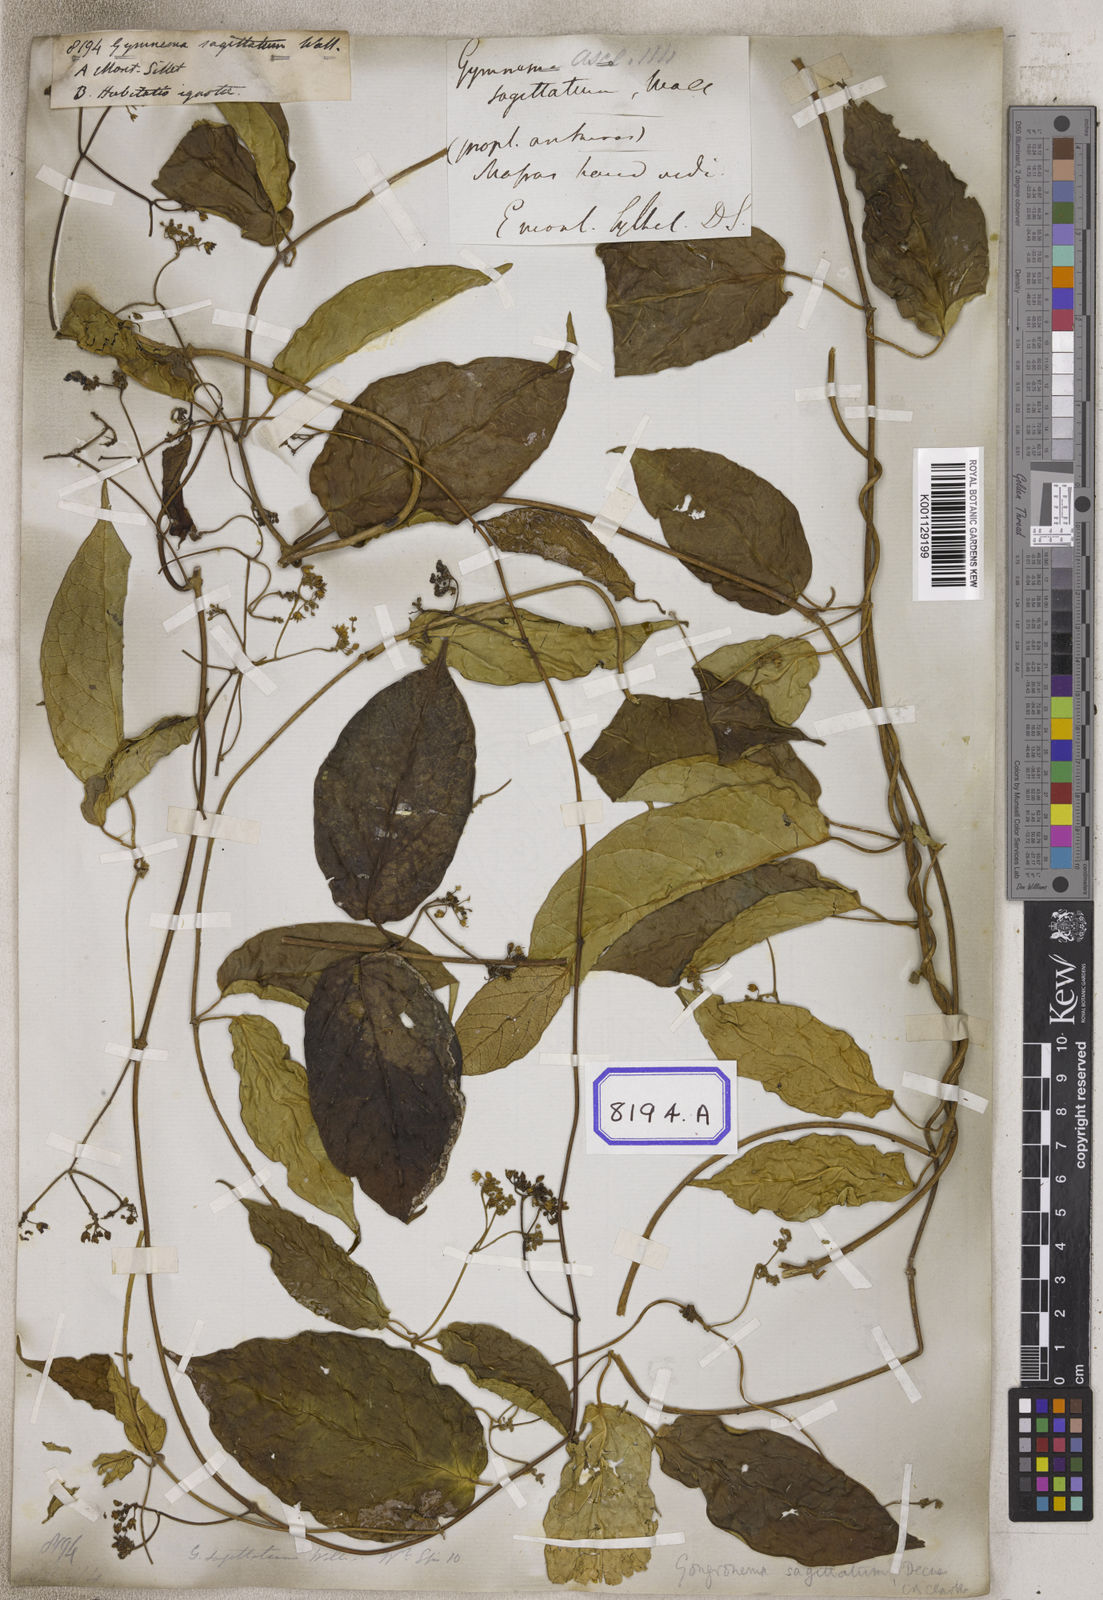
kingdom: Plantae
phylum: Tracheophyta
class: Magnoliopsida
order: Gentianales
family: Apocynaceae
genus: Gongronema
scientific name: Gongronema napalense
